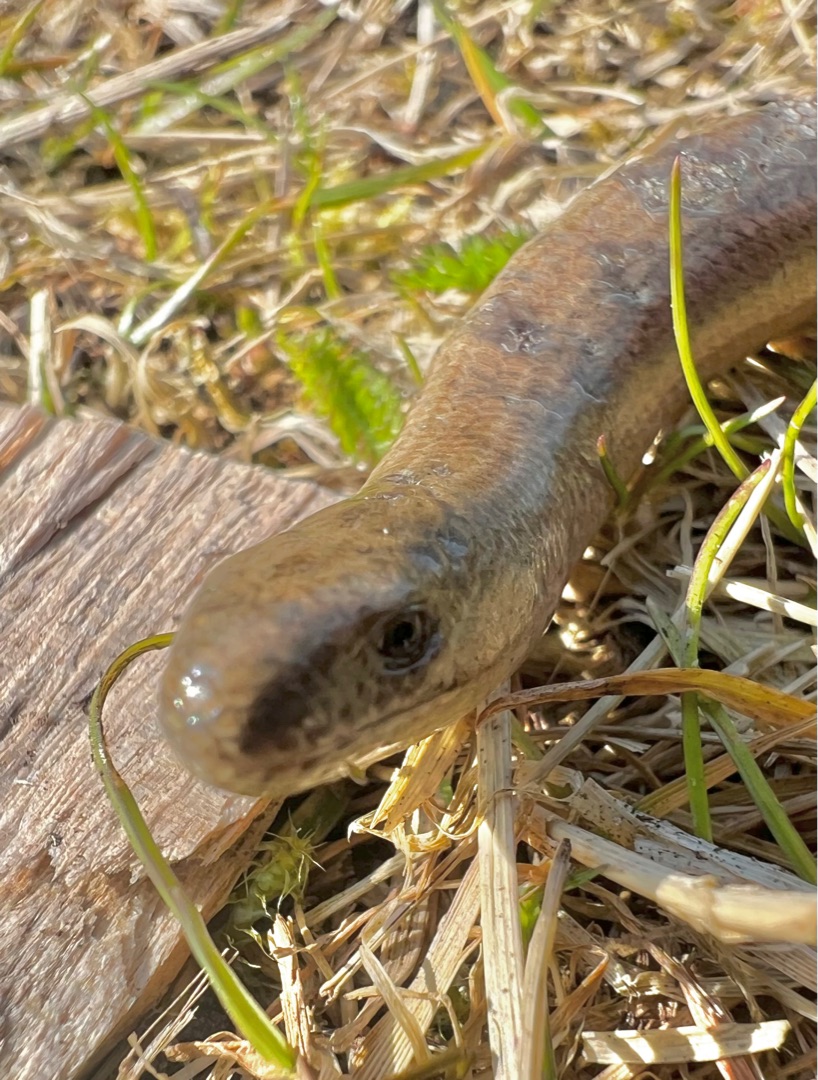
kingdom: Animalia
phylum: Chordata
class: Squamata
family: Anguidae
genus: Anguis
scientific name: Anguis fragilis
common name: Stålorm
